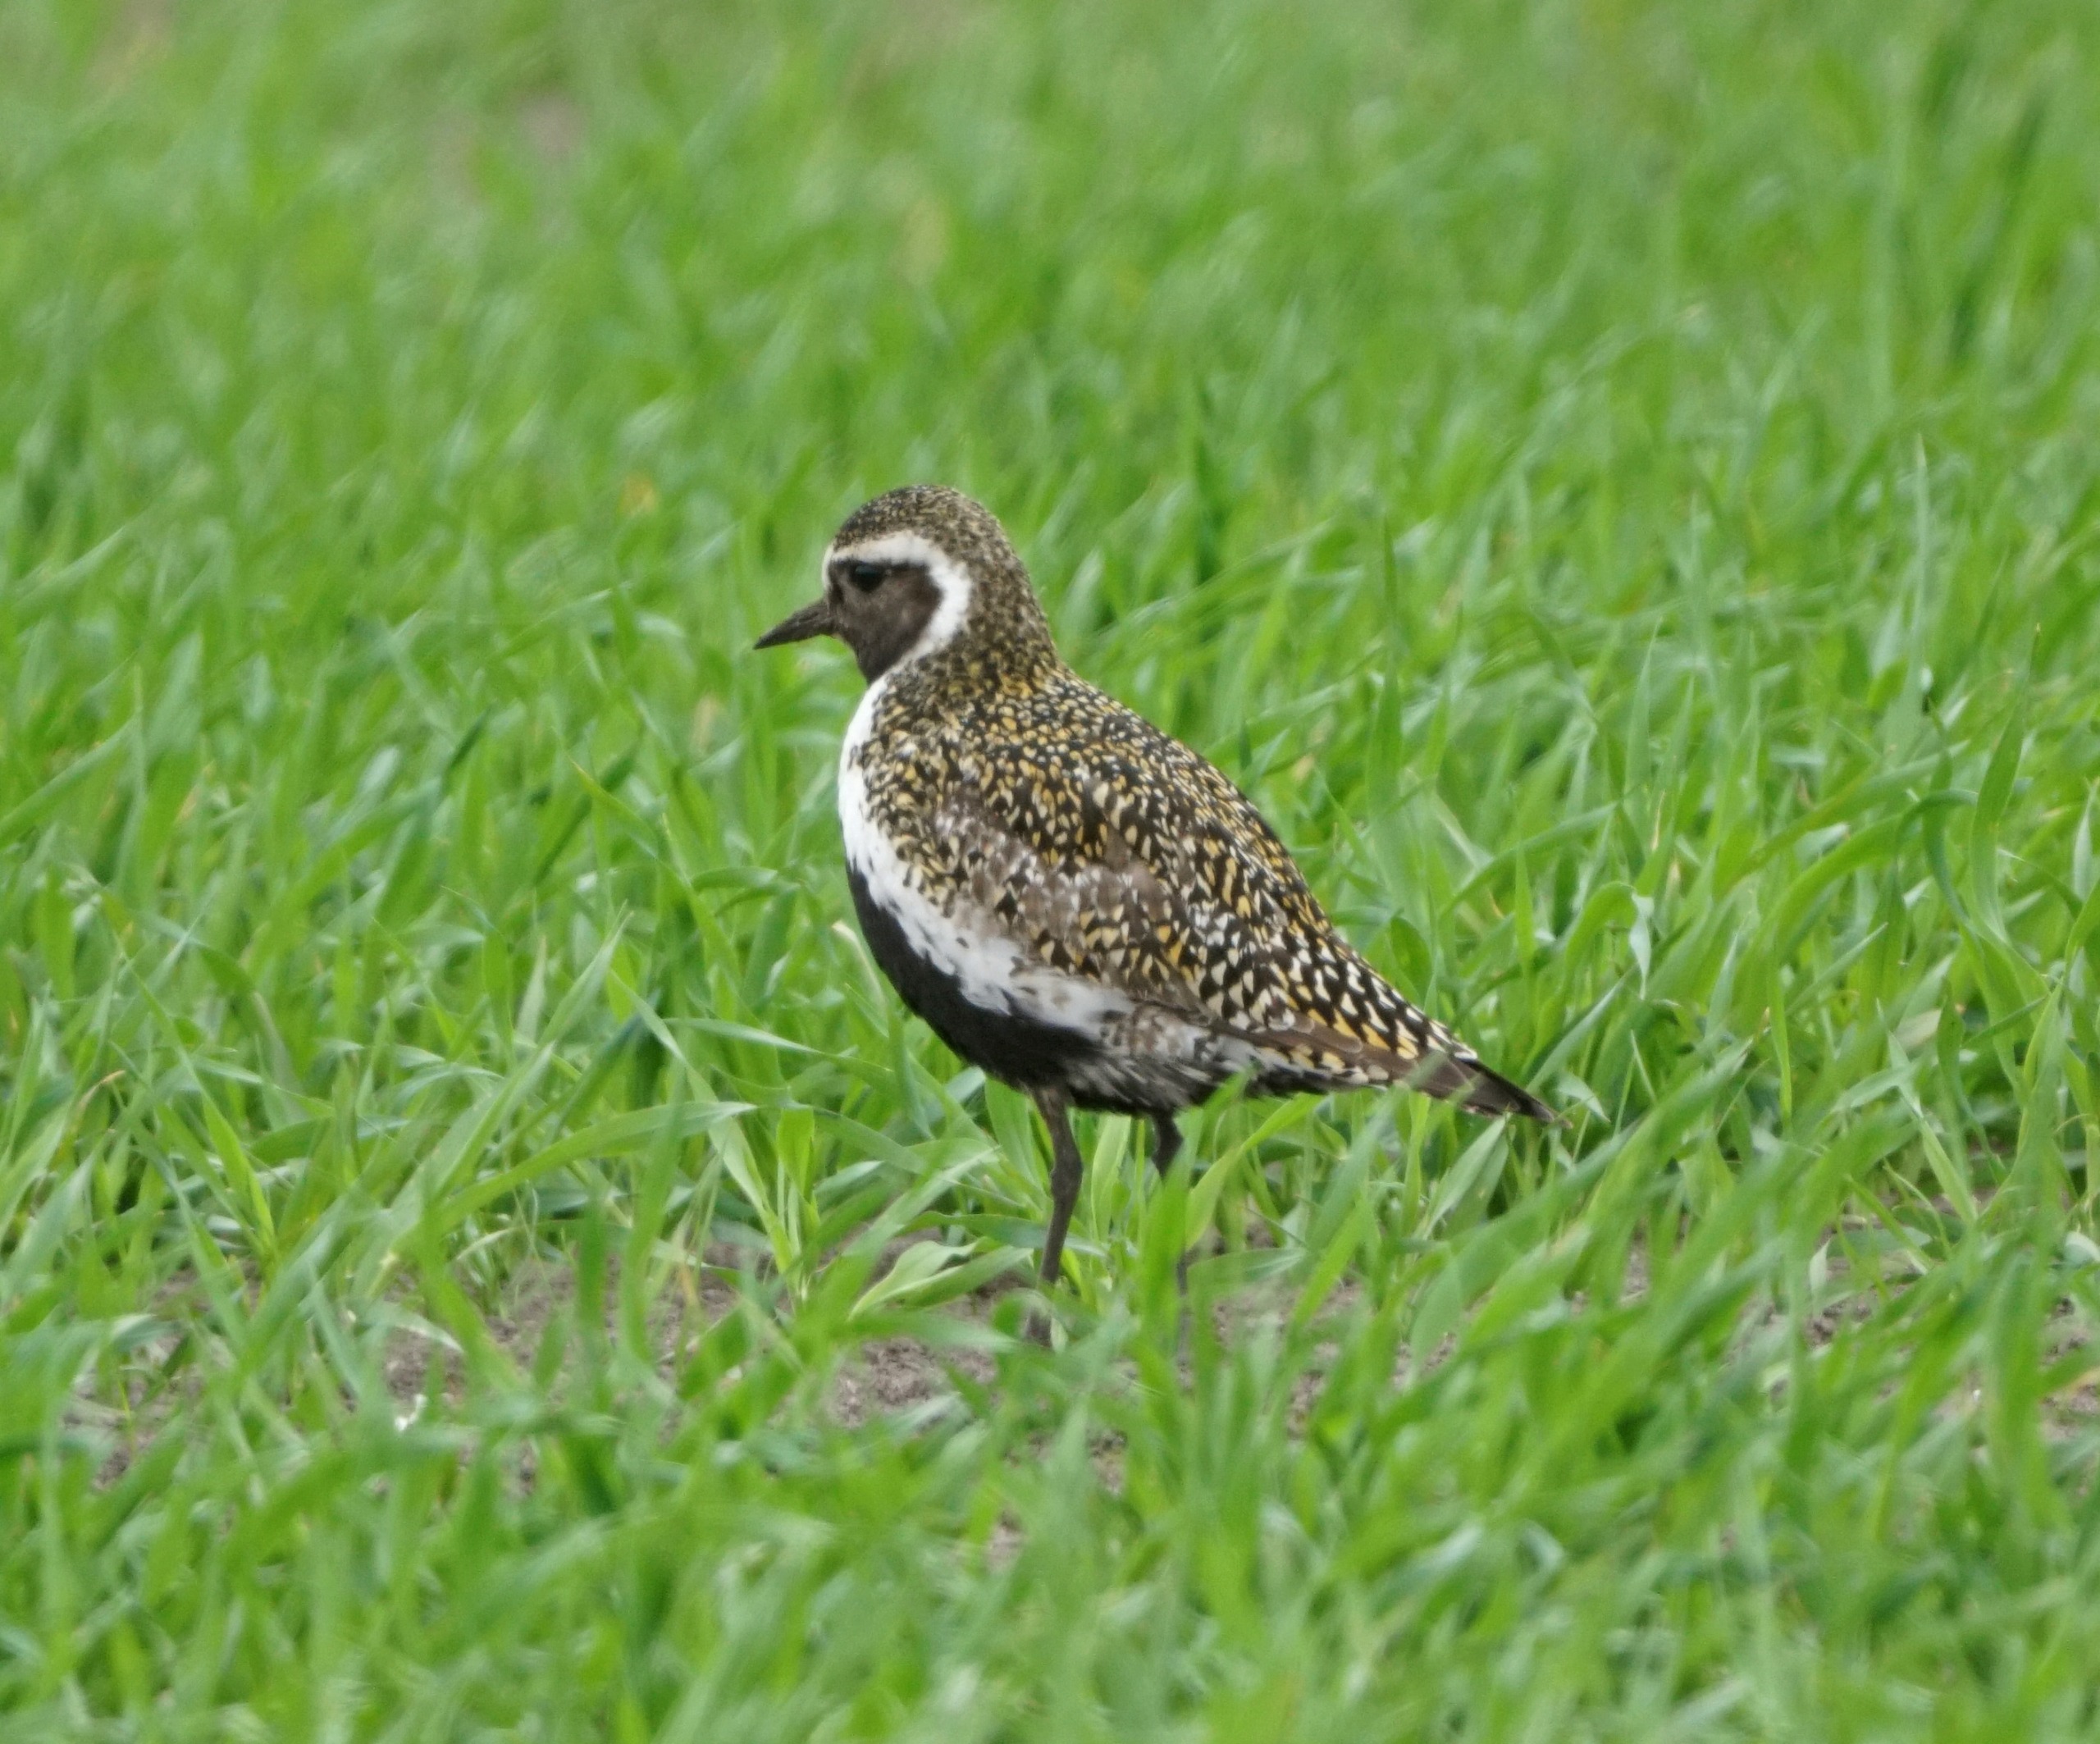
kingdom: Animalia
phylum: Chordata
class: Aves
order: Charadriiformes
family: Charadriidae
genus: Pluvialis
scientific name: Pluvialis apricaria
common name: Hjejle
